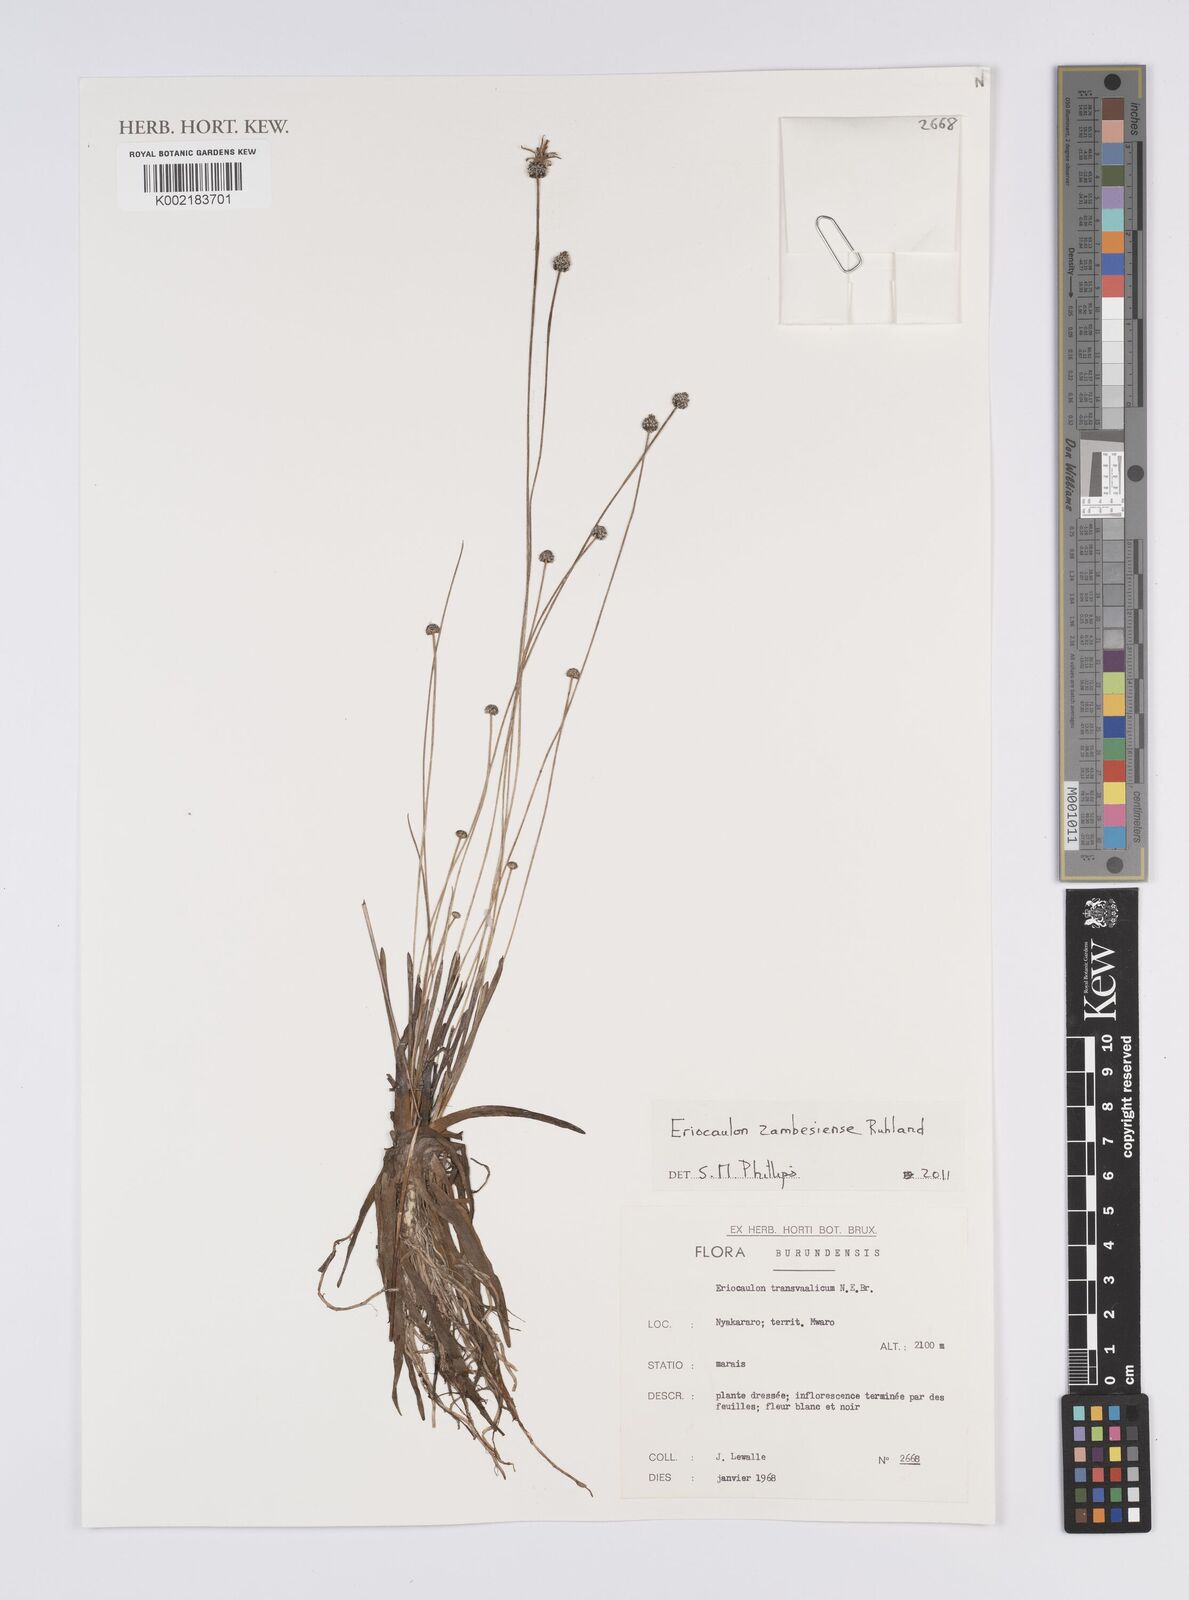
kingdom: Plantae
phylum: Tracheophyta
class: Liliopsida
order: Poales
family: Eriocaulaceae
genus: Eriocaulon
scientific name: Eriocaulon zambesiense
